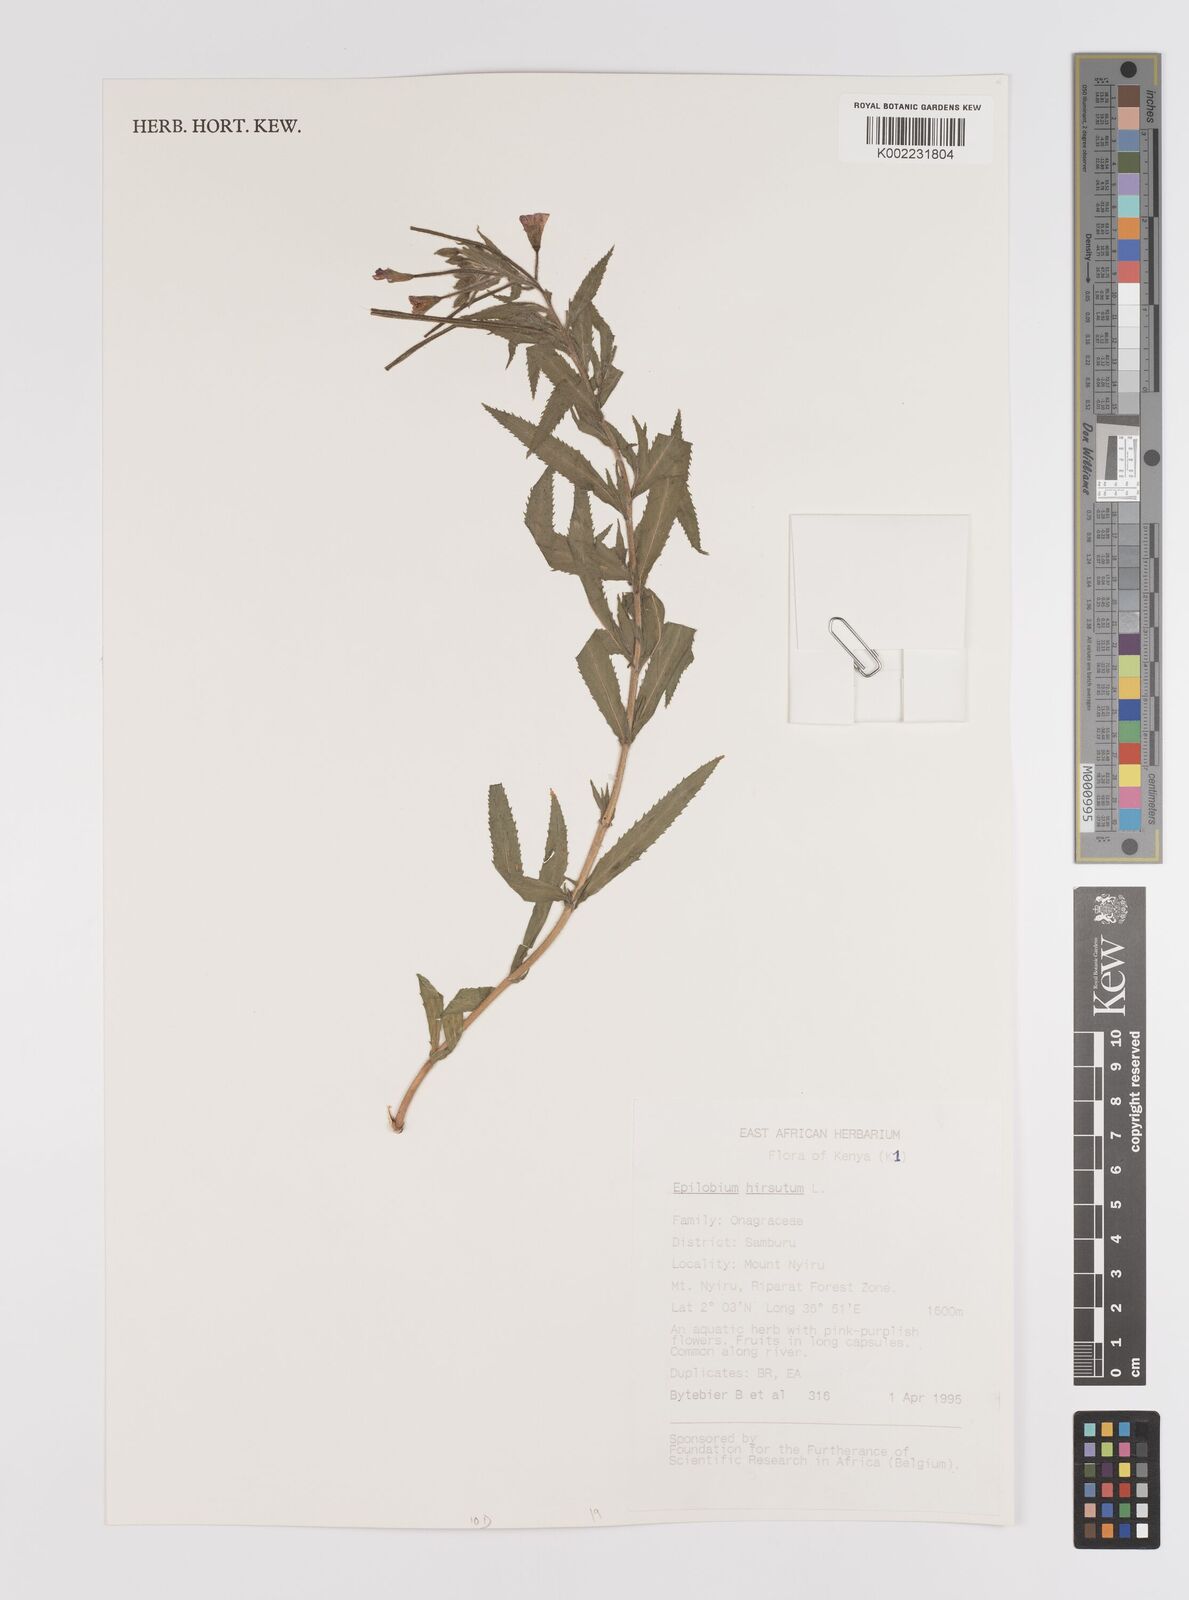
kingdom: Plantae
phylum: Tracheophyta
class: Magnoliopsida
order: Myrtales
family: Onagraceae
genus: Epilobium
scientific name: Epilobium hirsutum
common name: Great willowherb
